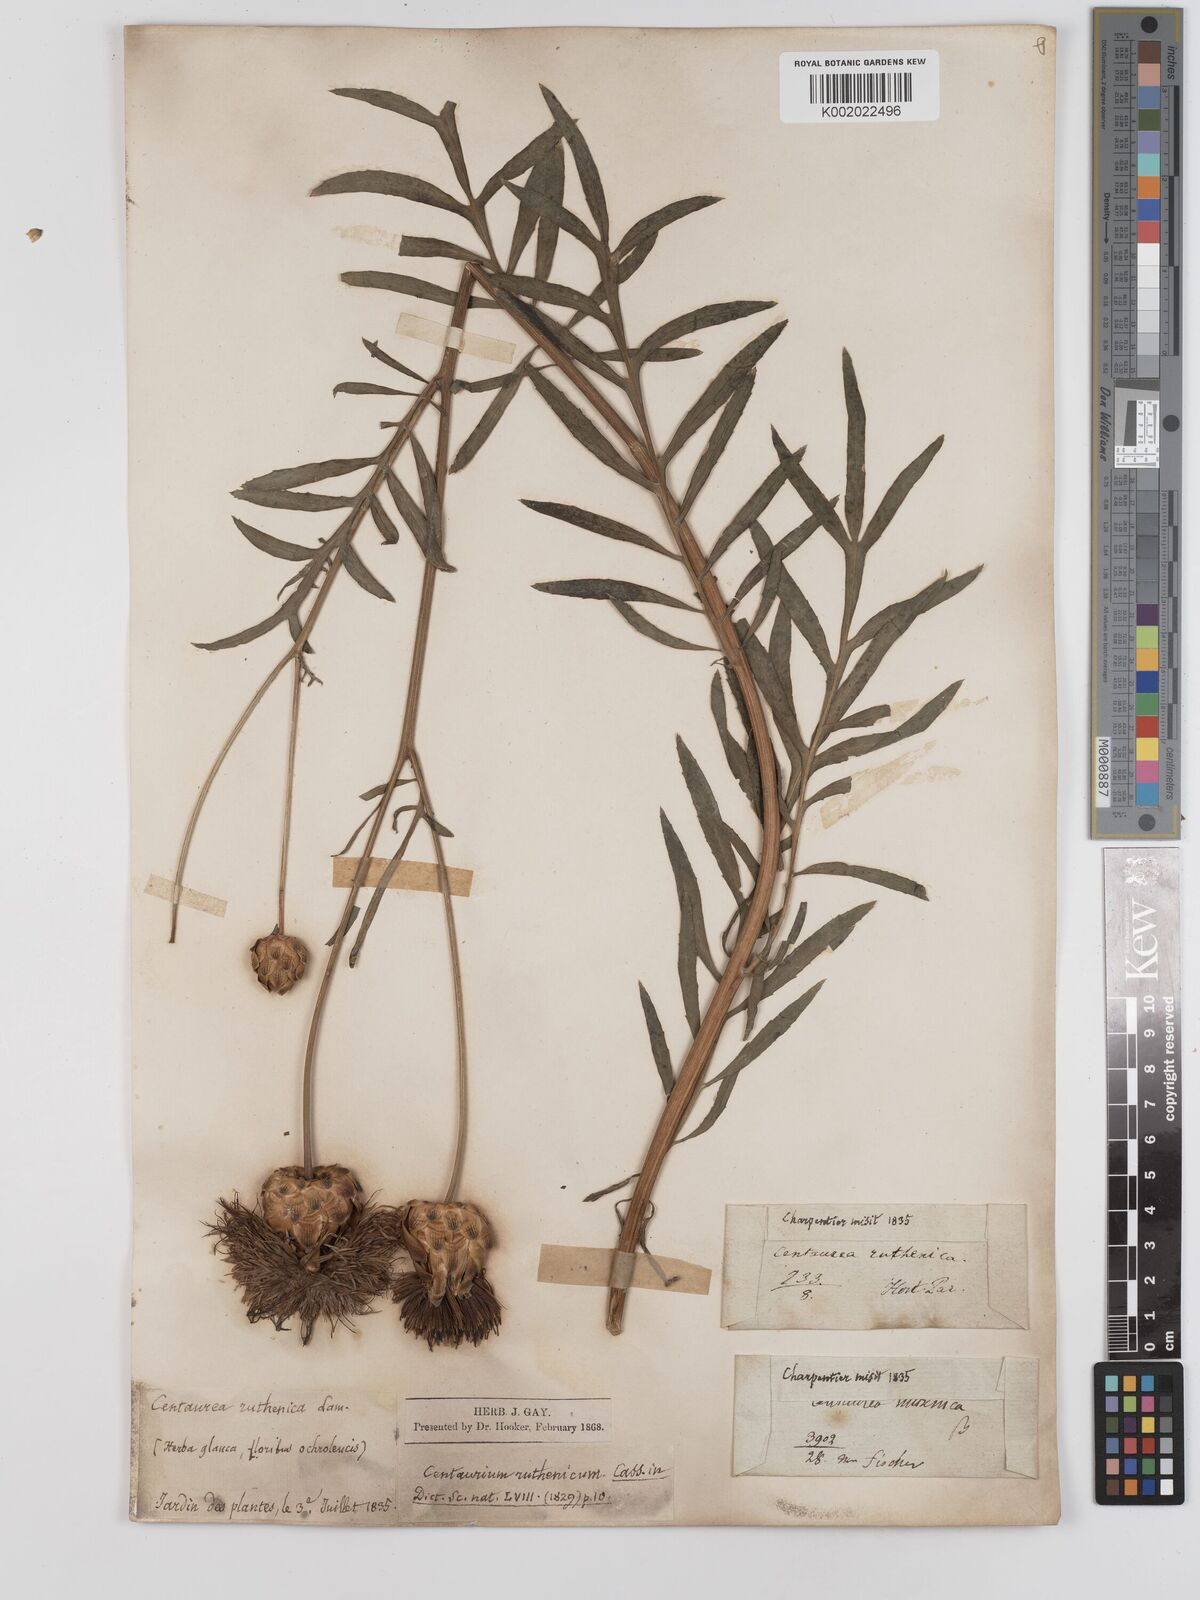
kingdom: Plantae
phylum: Tracheophyta
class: Magnoliopsida
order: Asterales
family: Asteraceae
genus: Rhaponticoides
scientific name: Rhaponticoides ruthenica
